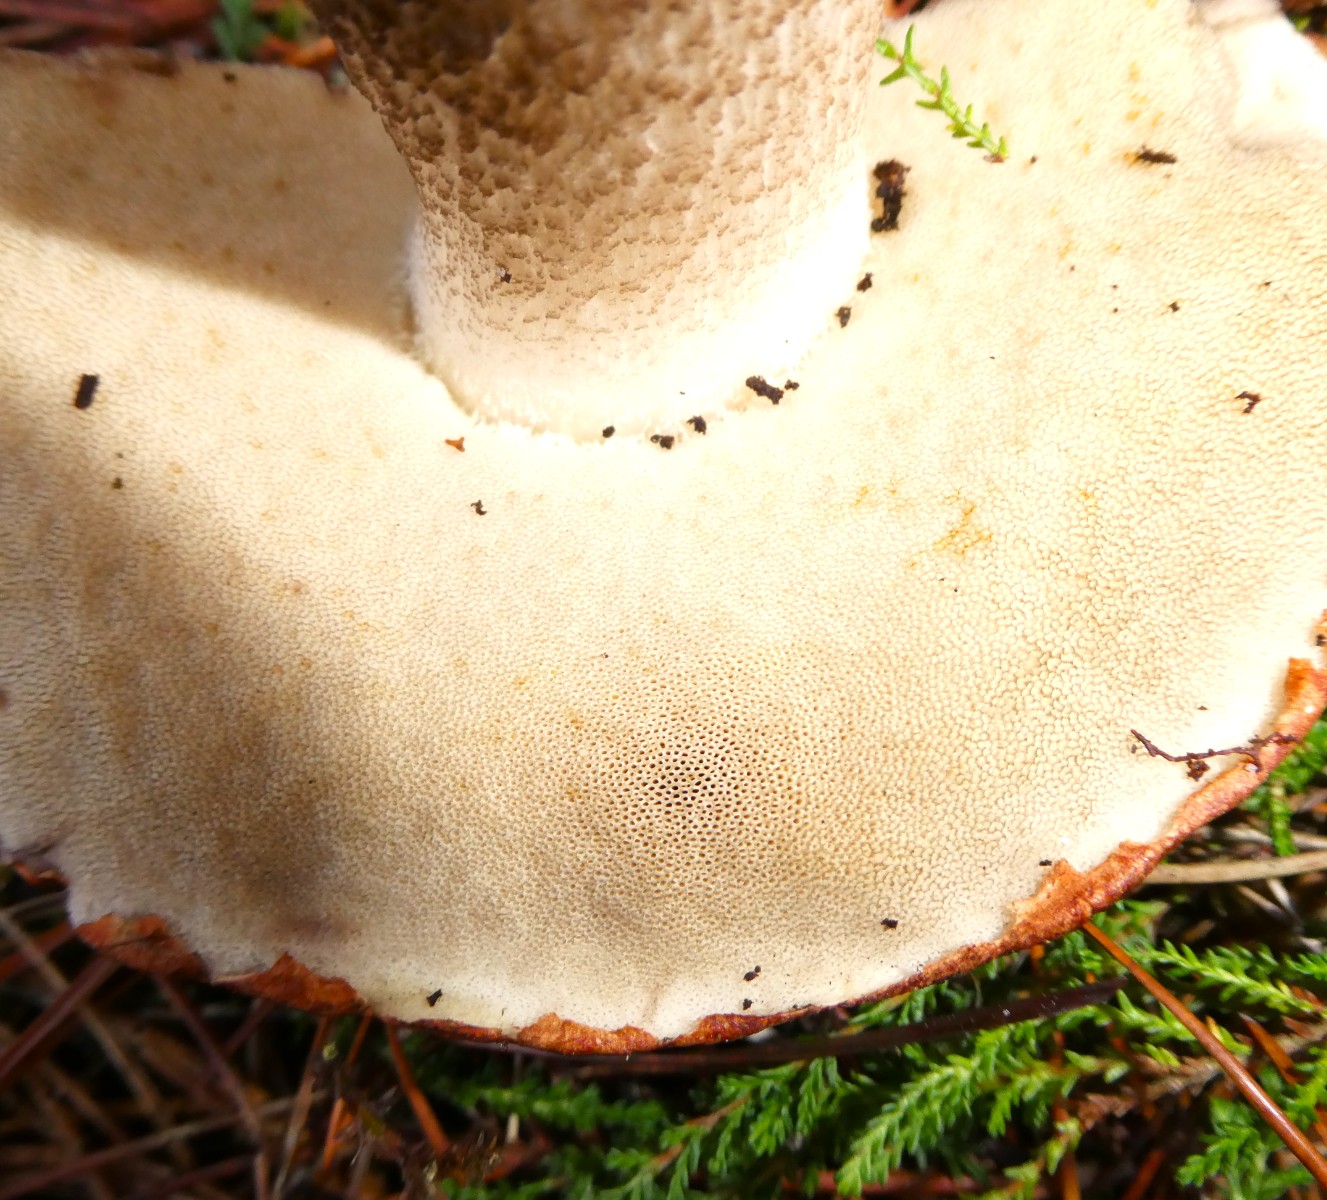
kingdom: Fungi
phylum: Basidiomycota
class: Agaricomycetes
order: Boletales
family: Boletaceae
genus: Leccinum
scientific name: Leccinum vulpinum
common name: fyrre-skælrørhat
